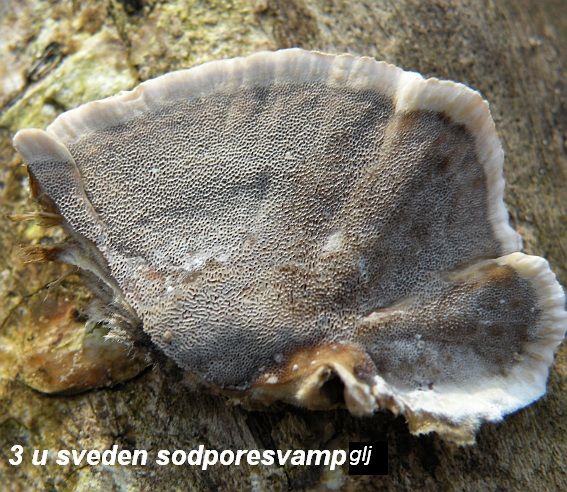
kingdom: Fungi
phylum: Basidiomycota
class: Agaricomycetes
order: Polyporales
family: Phanerochaetaceae
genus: Bjerkandera
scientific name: Bjerkandera adusta
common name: sveden sodporesvamp
